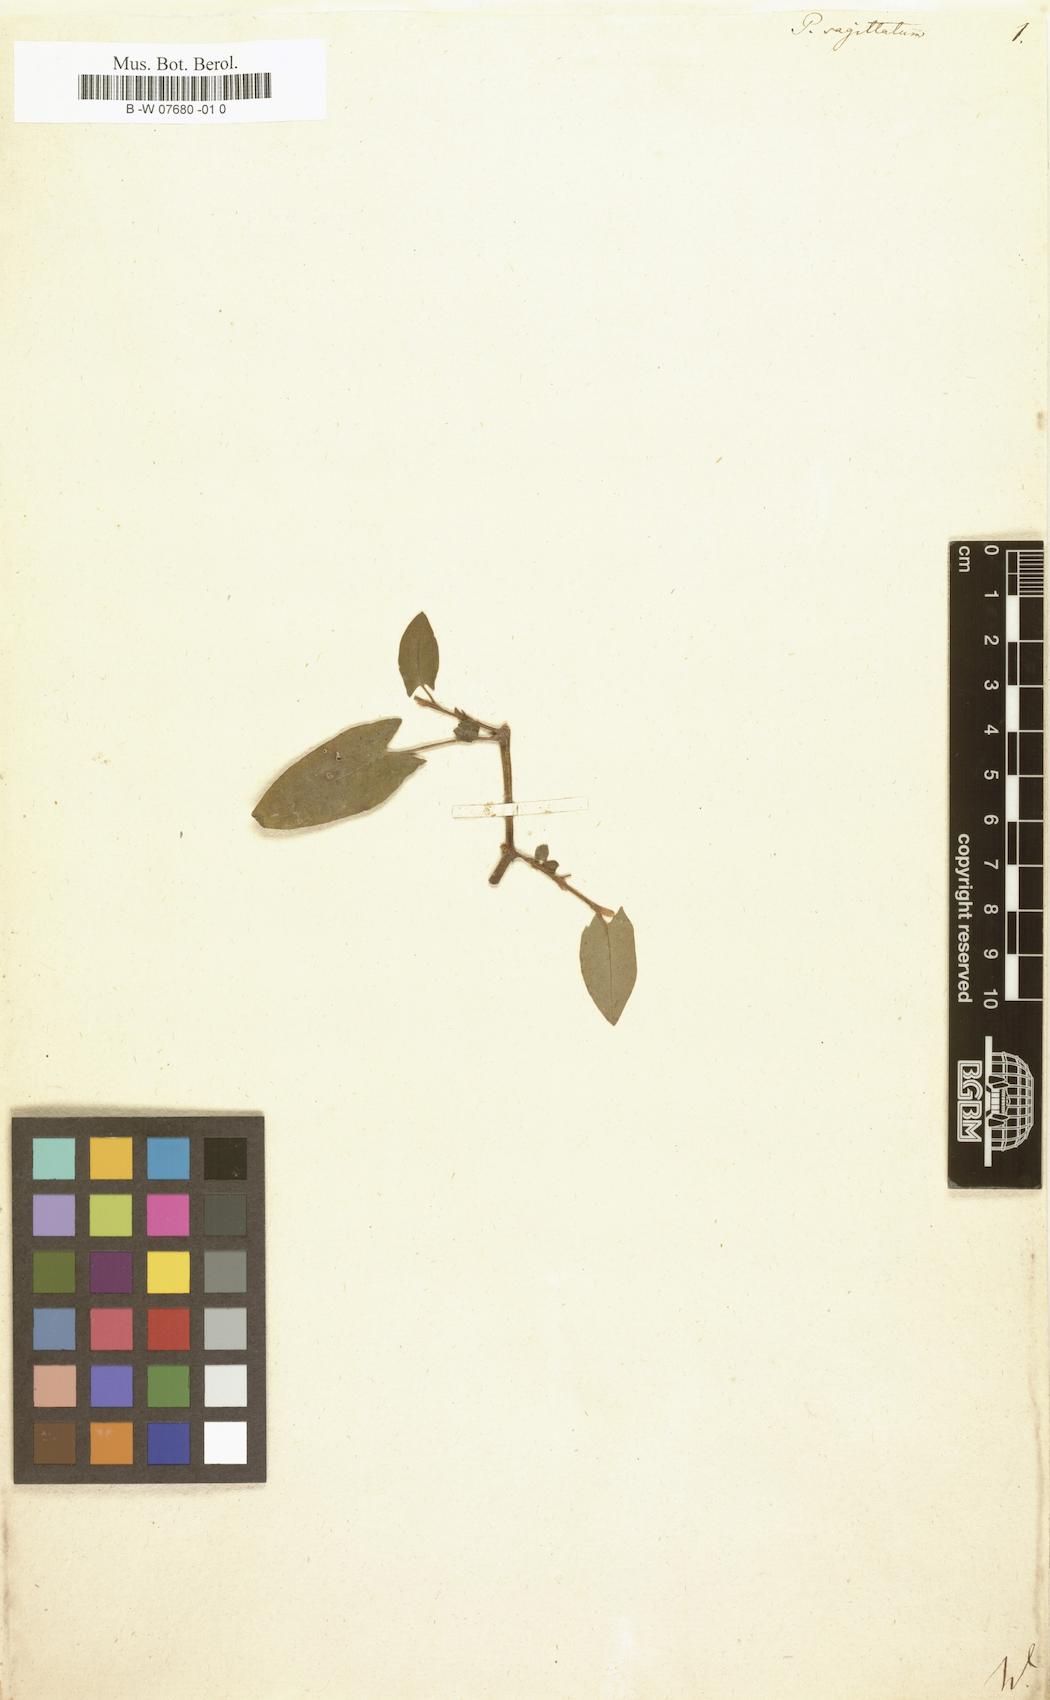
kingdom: Plantae
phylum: Tracheophyta
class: Magnoliopsida
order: Caryophyllales
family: Polygonaceae
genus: Polygonum
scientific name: Polygonum sagittatum
